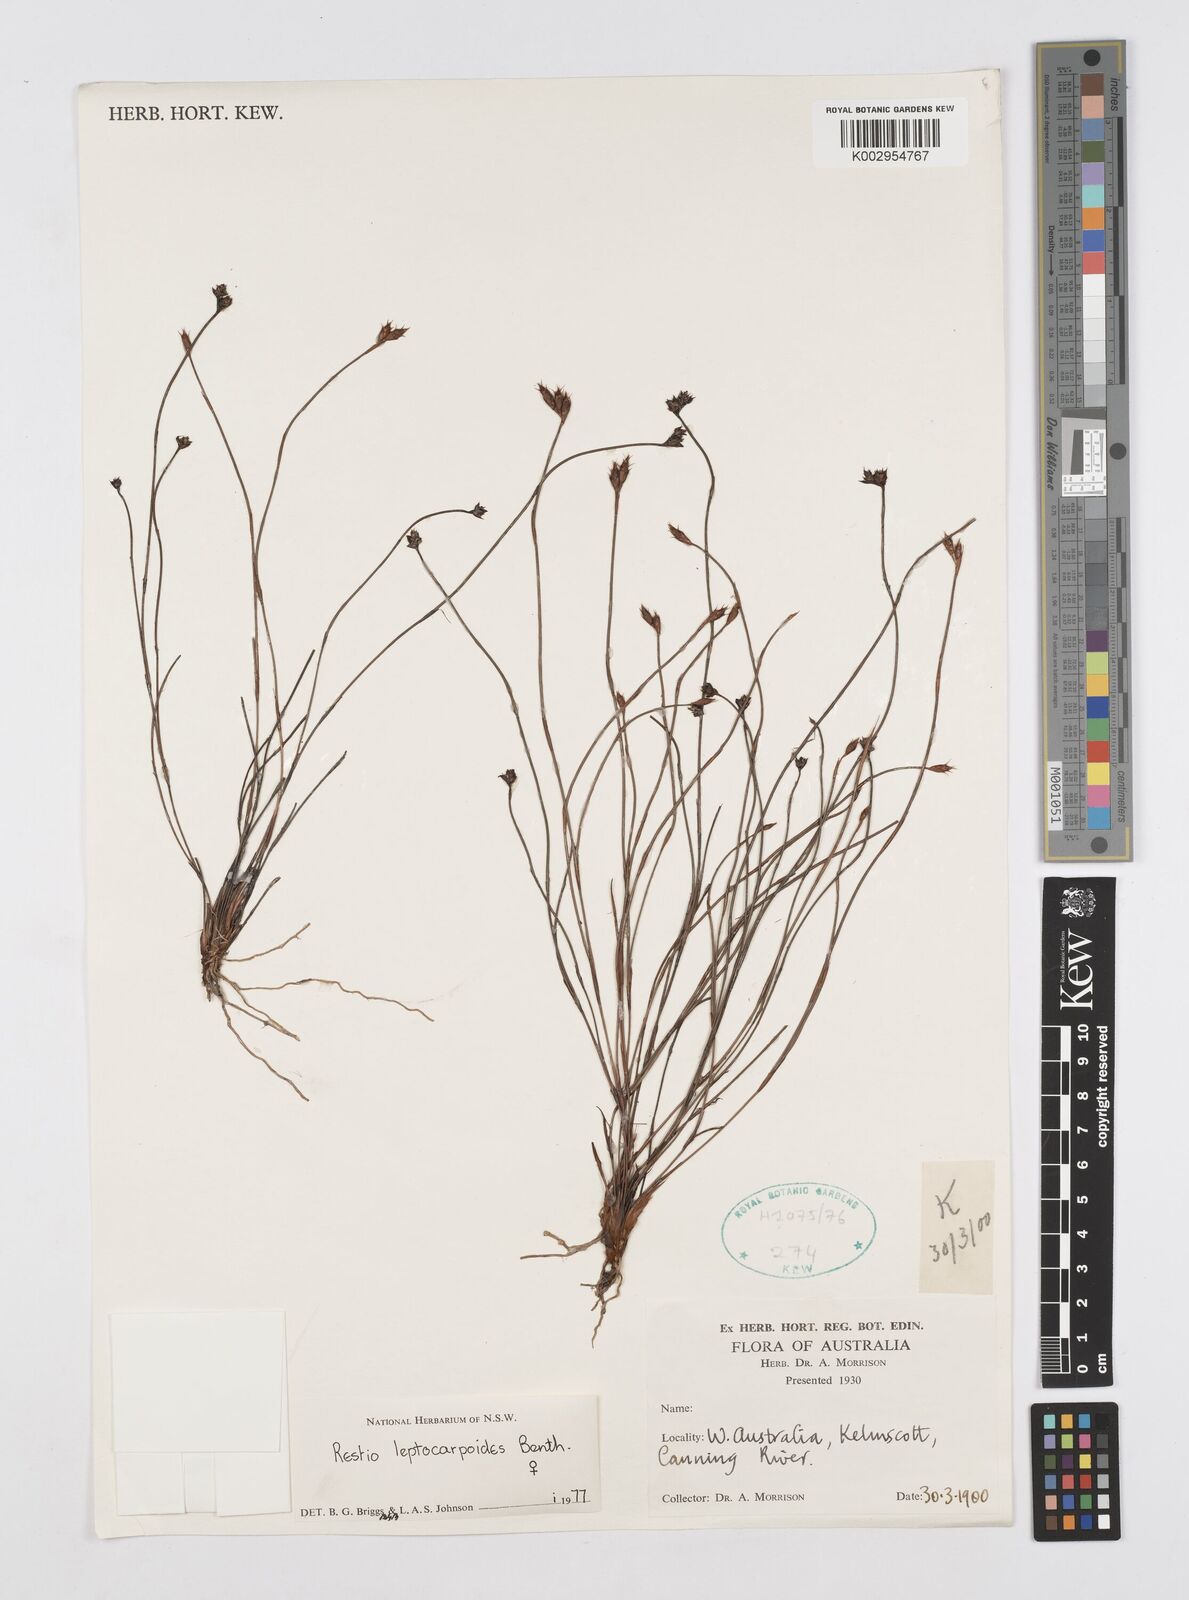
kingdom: Plantae
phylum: Tracheophyta
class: Liliopsida
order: Poales
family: Restionaceae
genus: Cytogonidium
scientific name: Cytogonidium leptocarpoides
